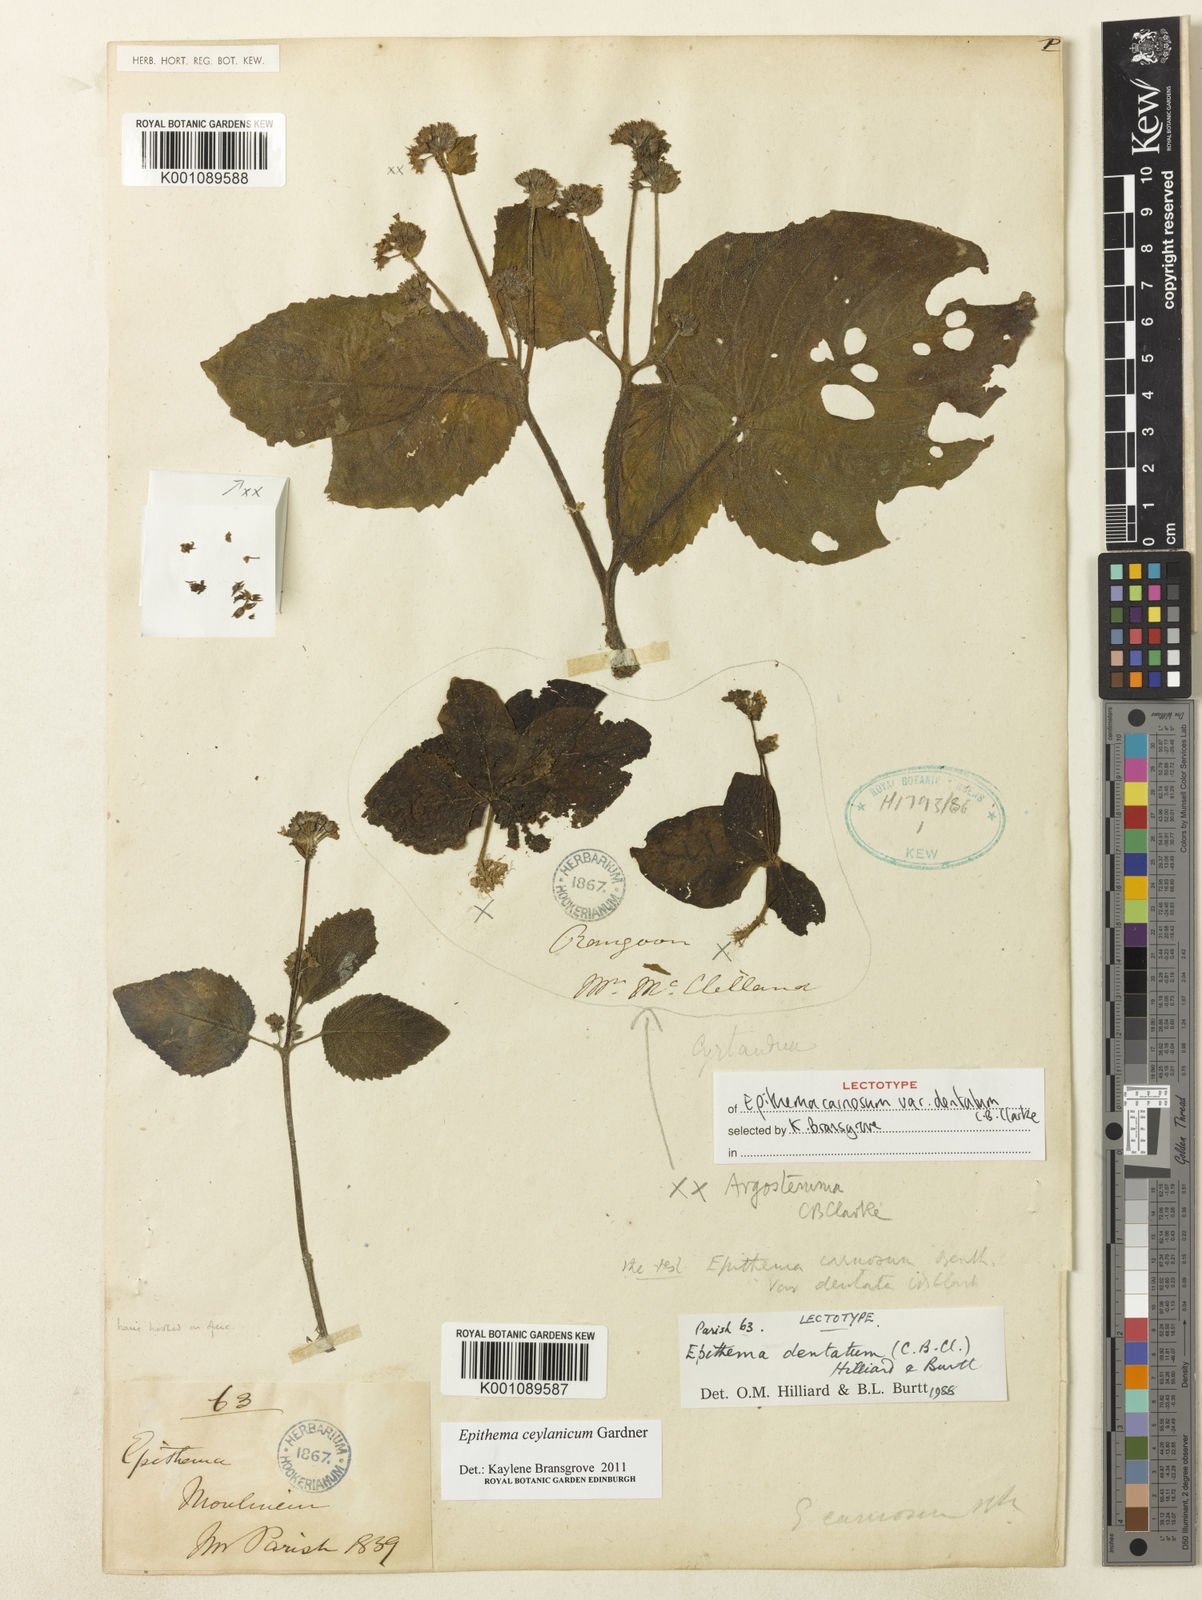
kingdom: Plantae
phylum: Tracheophyta
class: Magnoliopsida
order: Lamiales
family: Gesneriaceae
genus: Epithema
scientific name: Epithema ceylanicum
